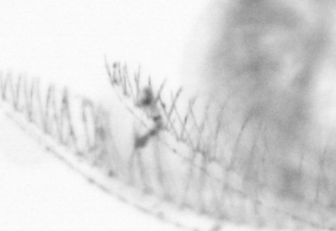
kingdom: Animalia
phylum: Chordata
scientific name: Chordata
